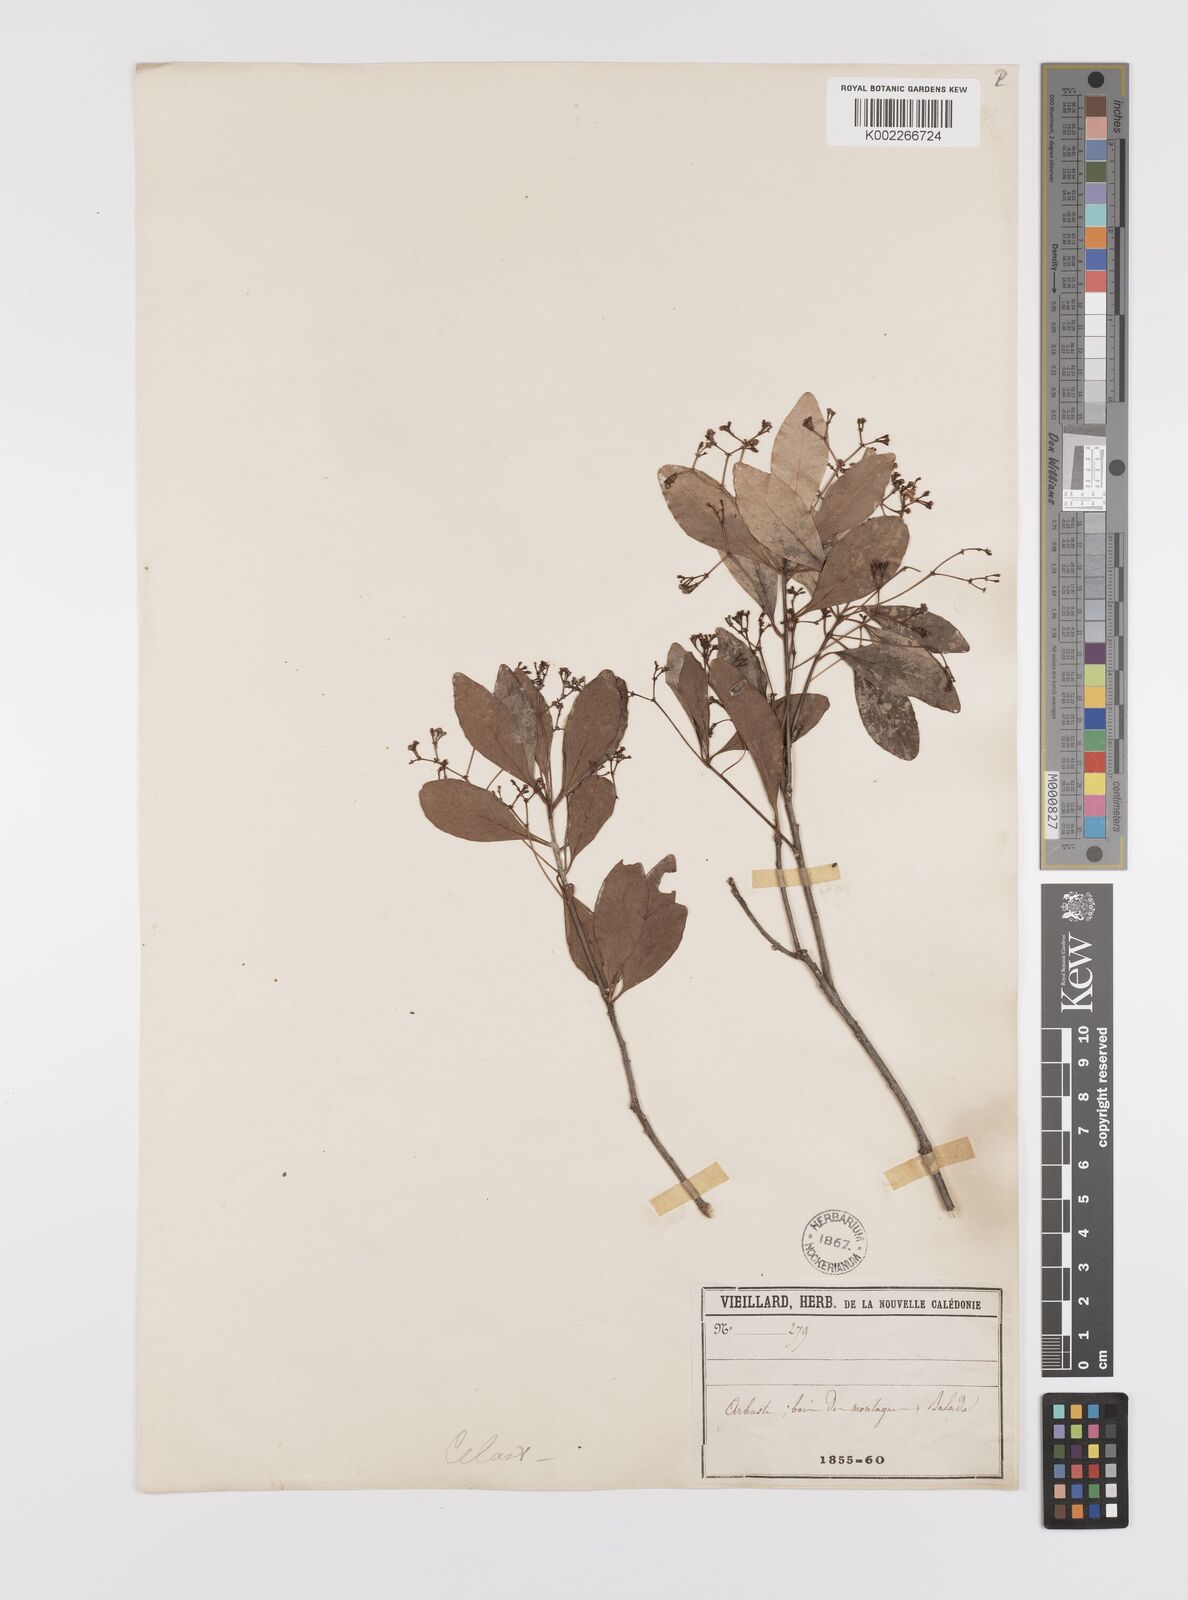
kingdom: Plantae
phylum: Tracheophyta
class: Magnoliopsida
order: Celastrales
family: Celastraceae
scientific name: Celastraceae
